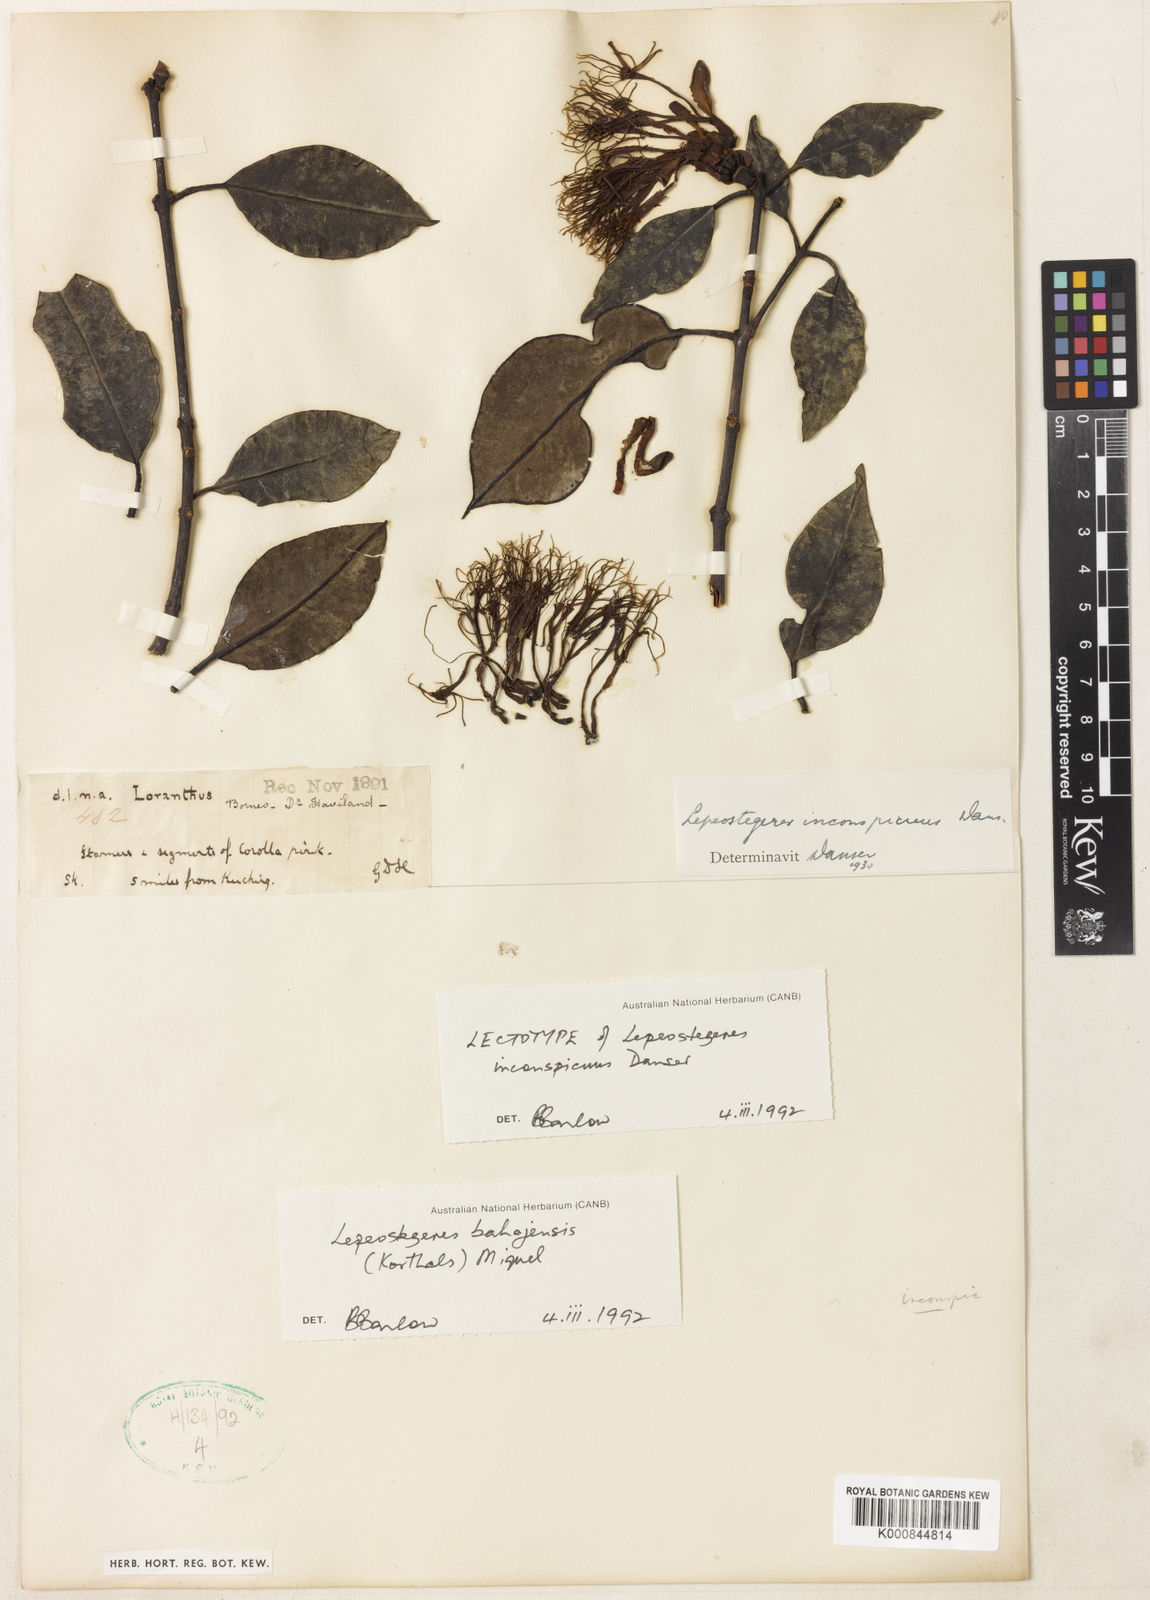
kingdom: Plantae
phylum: Tracheophyta
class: Magnoliopsida
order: Santalales
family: Loranthaceae
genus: Lepeostegeres
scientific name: Lepeostegeres bahajensis
